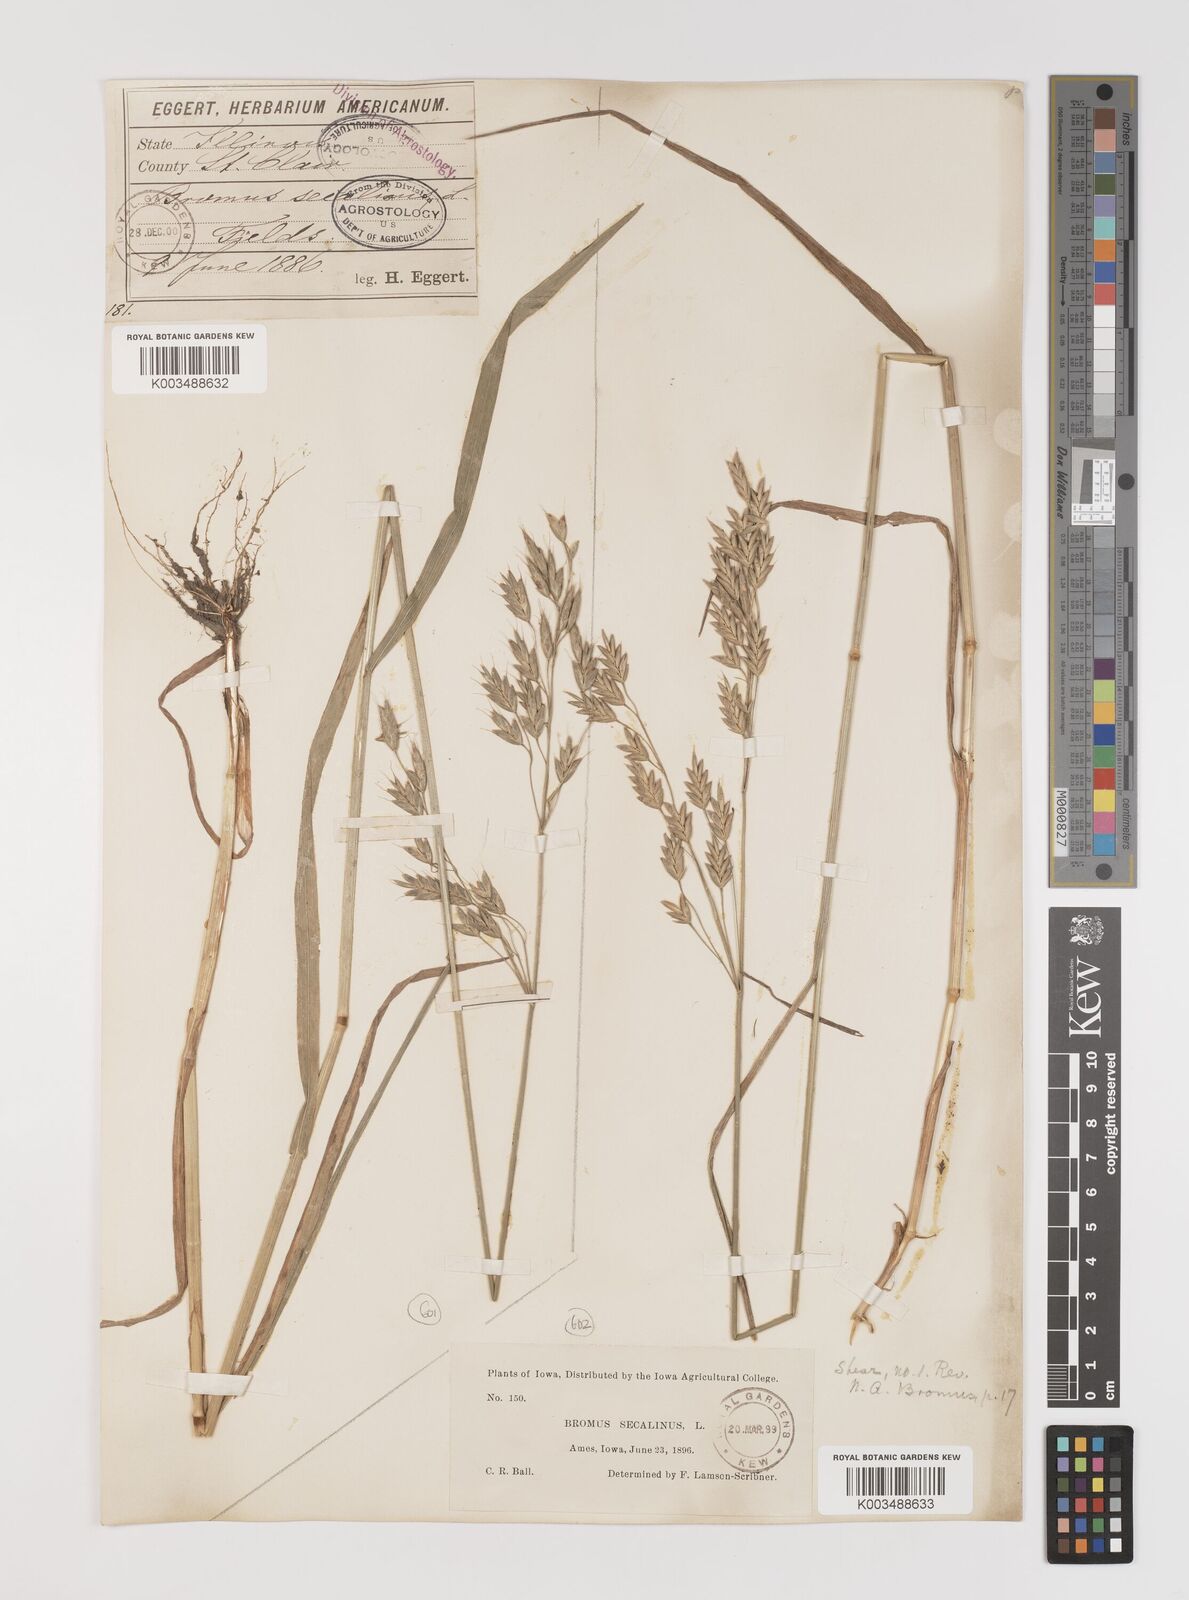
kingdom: Plantae
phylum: Tracheophyta
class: Liliopsida
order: Poales
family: Poaceae
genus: Bromus
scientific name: Bromus secalinus
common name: Rye brome
